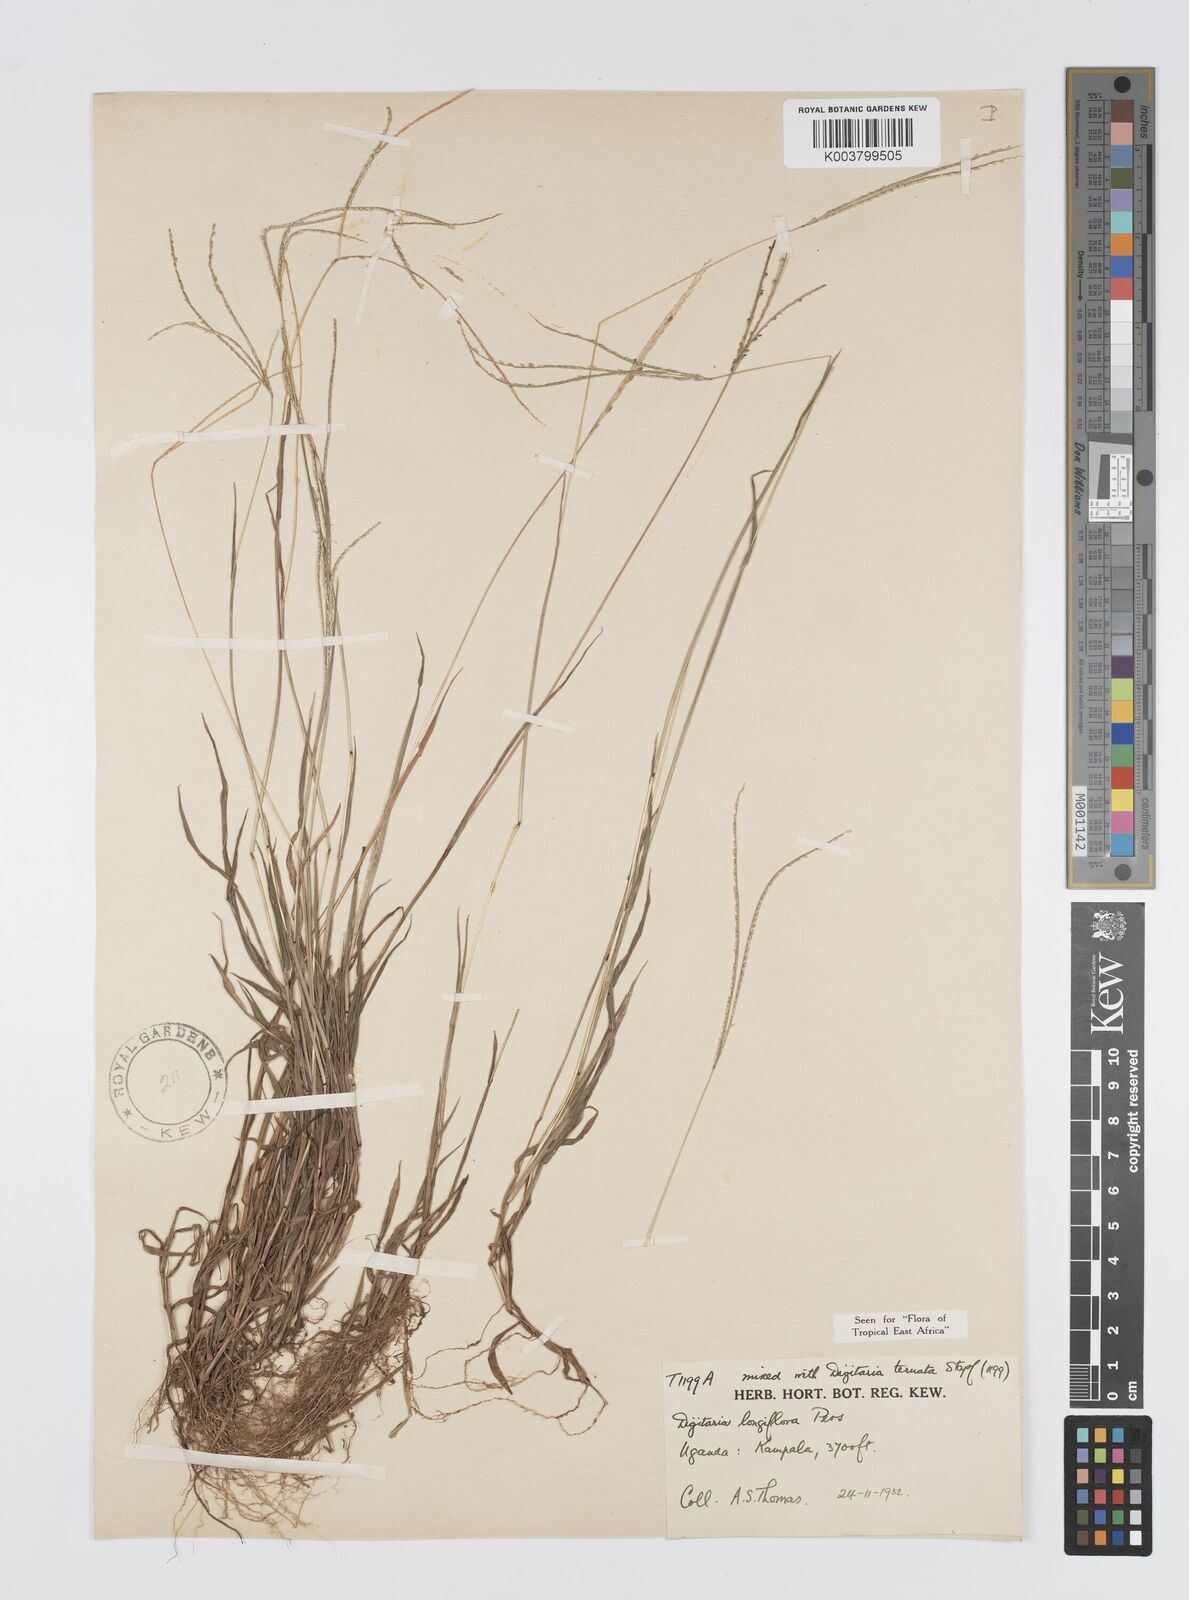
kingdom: Plantae
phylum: Tracheophyta
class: Liliopsida
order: Poales
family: Poaceae
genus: Digitaria
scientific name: Digitaria longiflora
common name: Wire crabgrass
